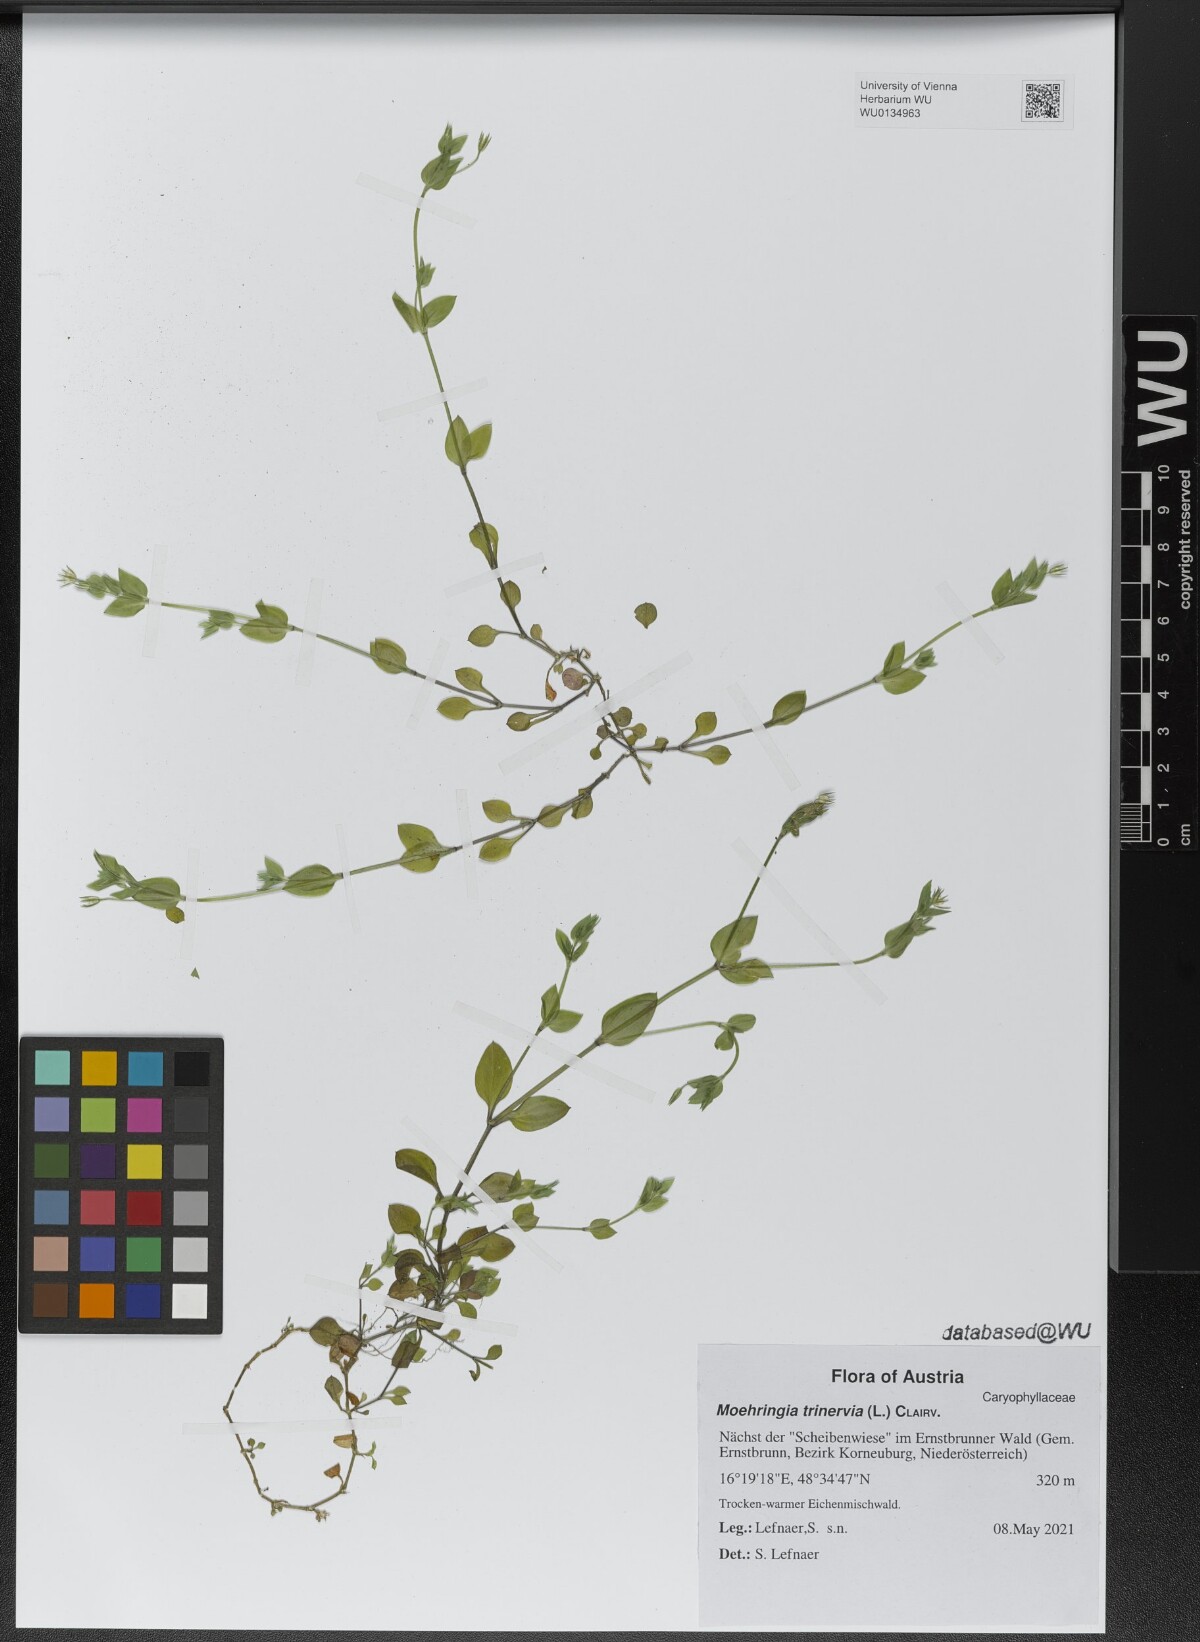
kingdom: Plantae
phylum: Tracheophyta
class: Magnoliopsida
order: Caryophyllales
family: Caryophyllaceae
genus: Moehringia
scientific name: Moehringia trinervia
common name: Three-nerved sandwort
